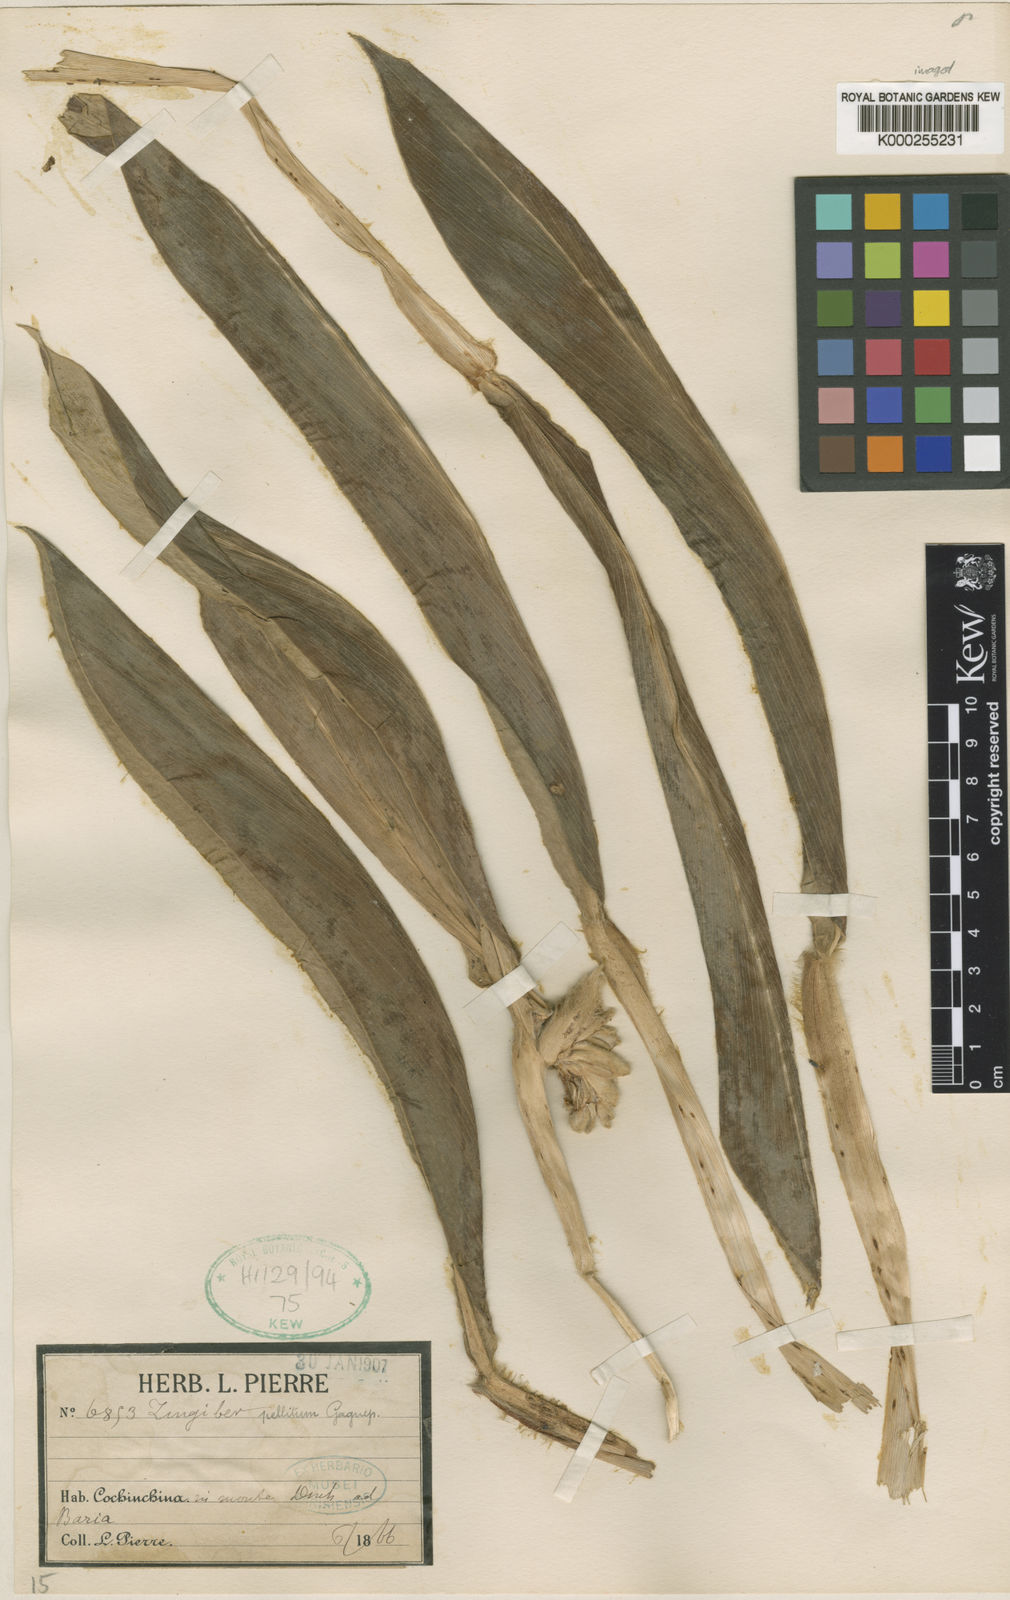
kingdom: Plantae
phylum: Tracheophyta
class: Liliopsida
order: Zingiberales
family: Zingiberaceae
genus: Zingiber
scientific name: Zingiber pellitum
